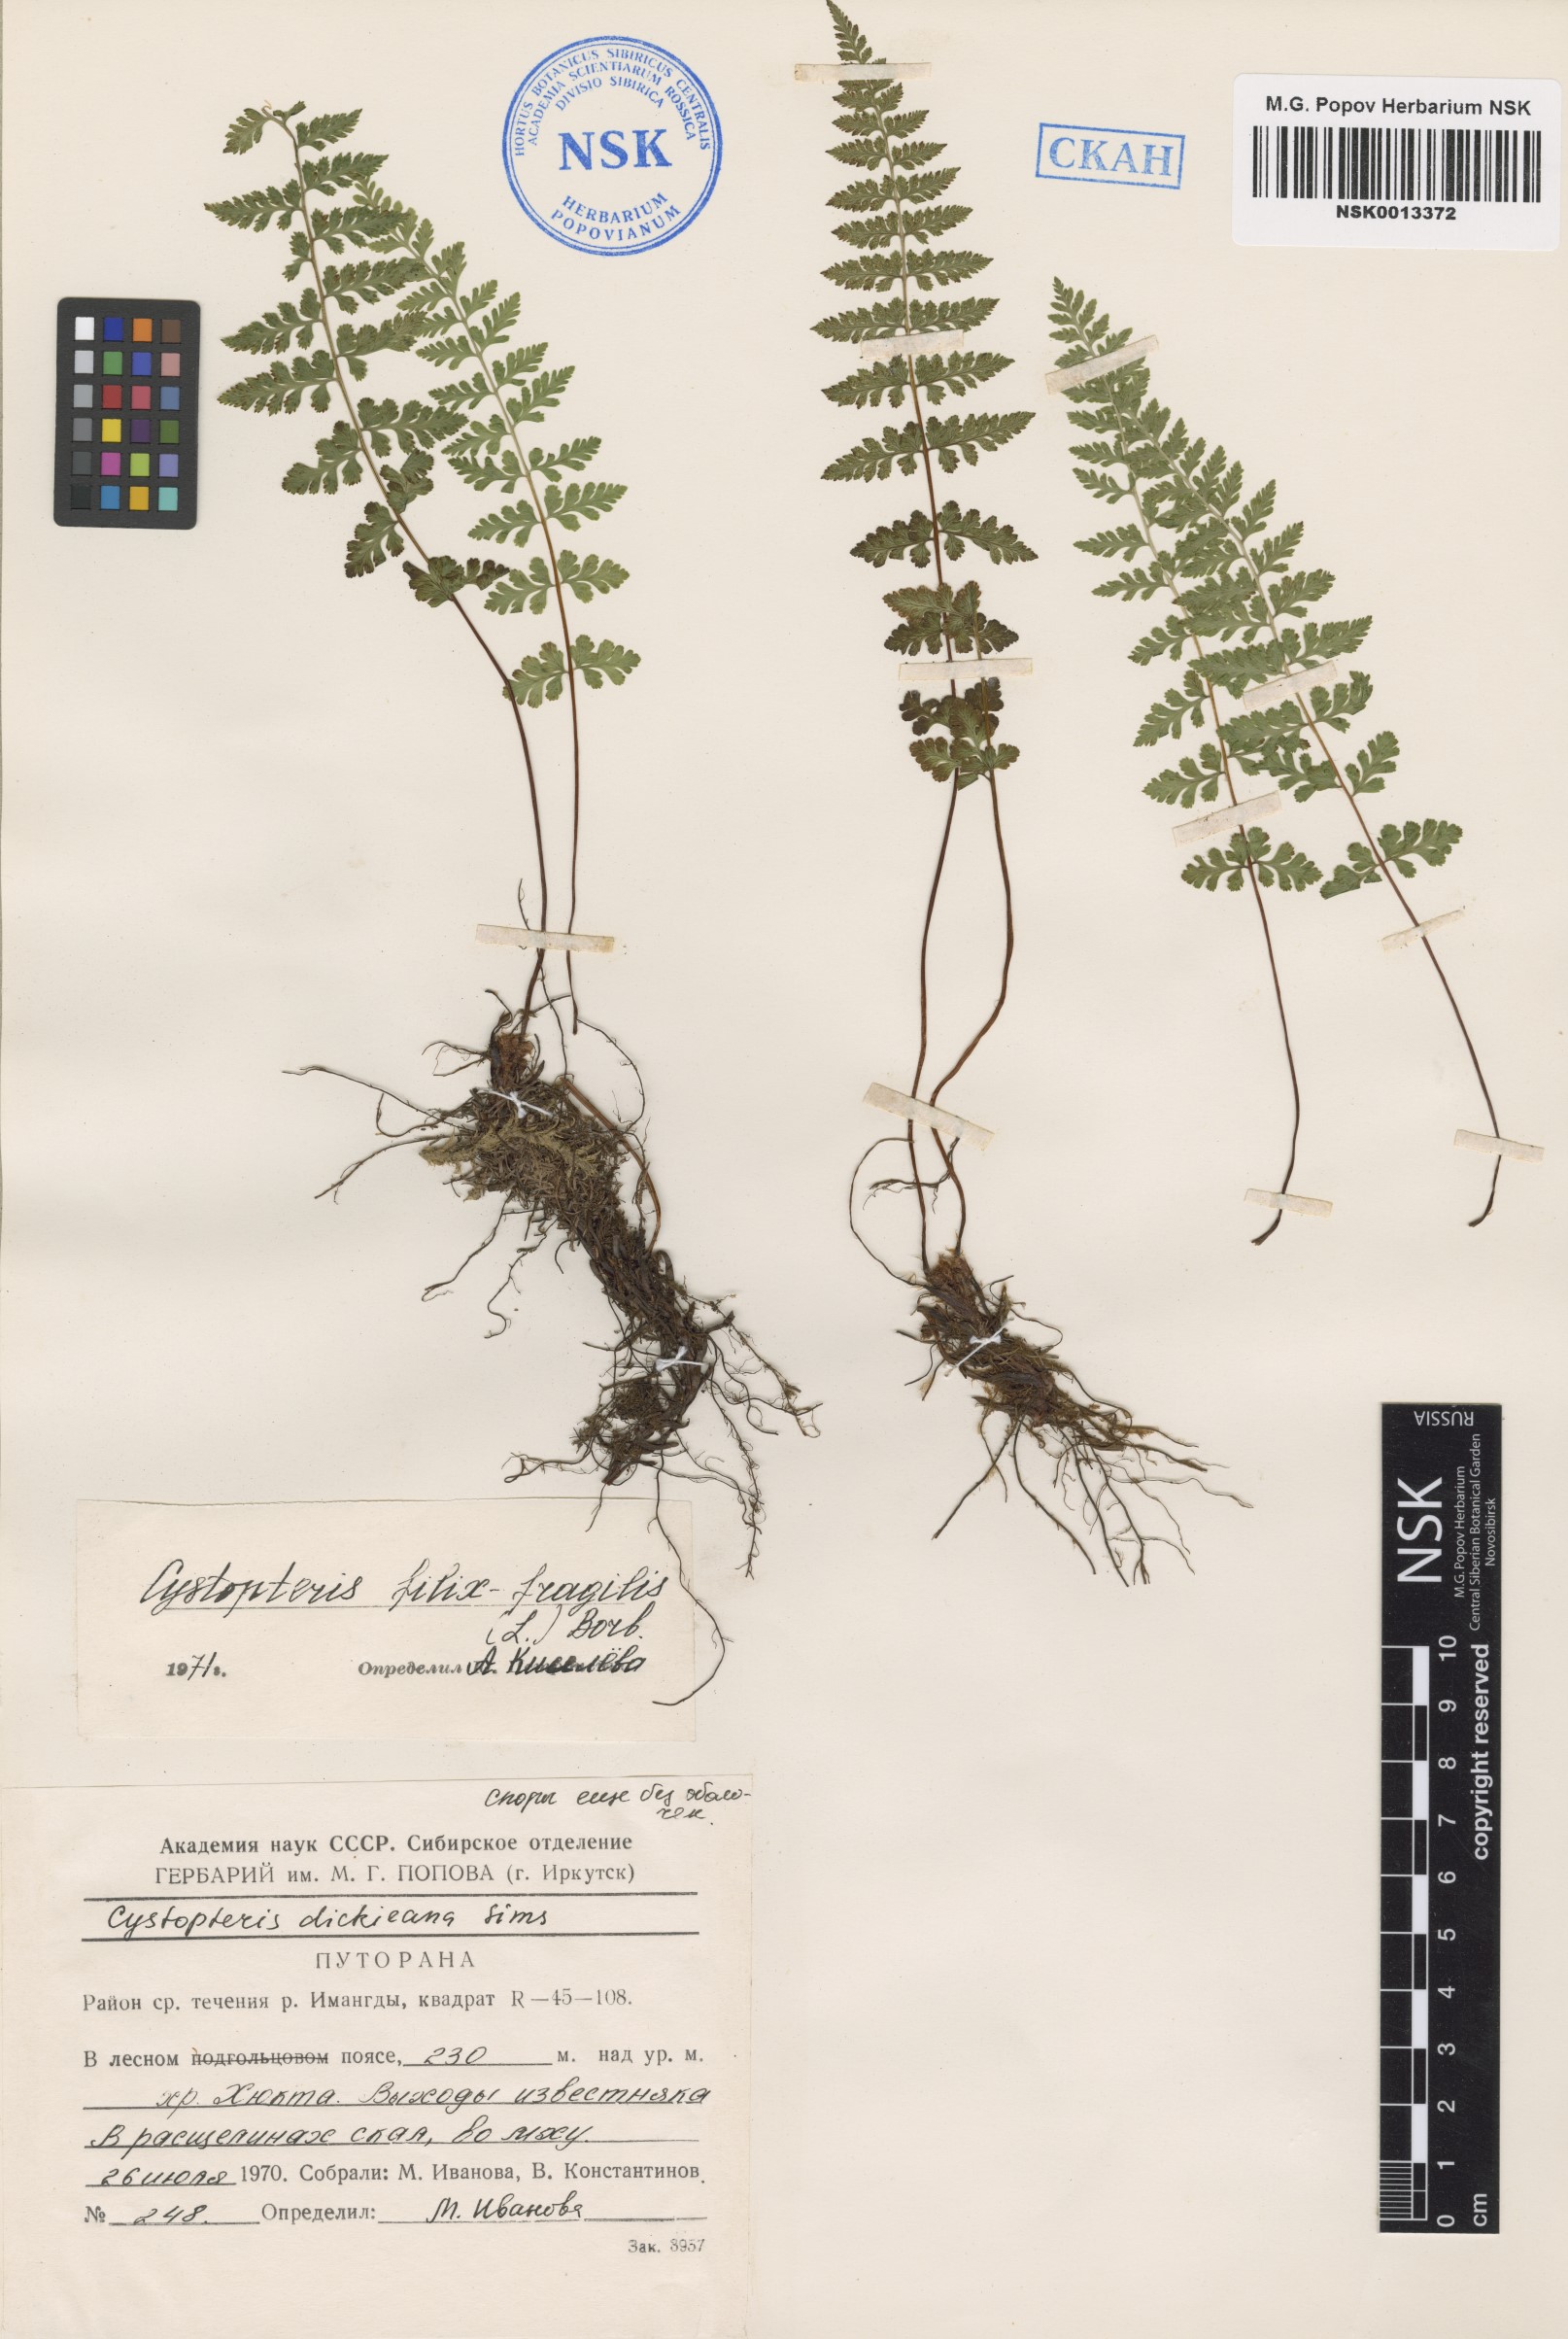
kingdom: Plantae
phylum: Tracheophyta
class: Polypodiopsida
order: Polypodiales
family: Cystopteridaceae
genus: Cystopteris
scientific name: Cystopteris fragilis
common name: Brittle bladder fern
